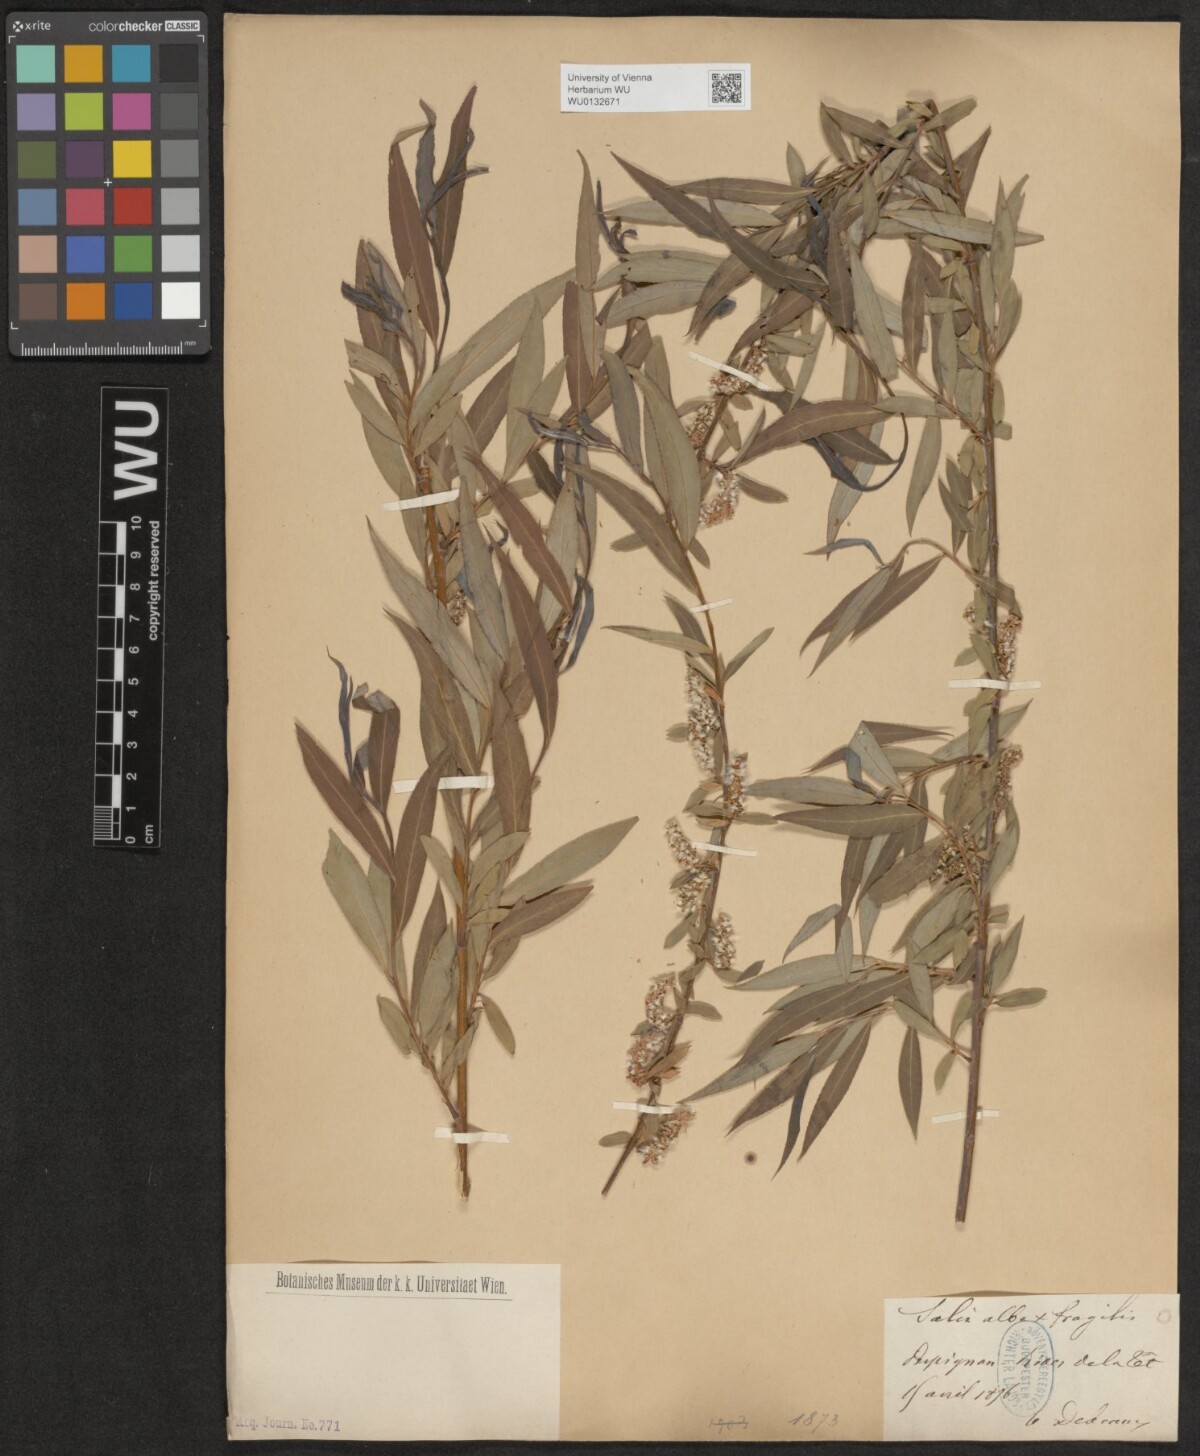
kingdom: Plantae
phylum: Tracheophyta
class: Magnoliopsida
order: Malpighiales
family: Salicaceae
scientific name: Salicaceae
